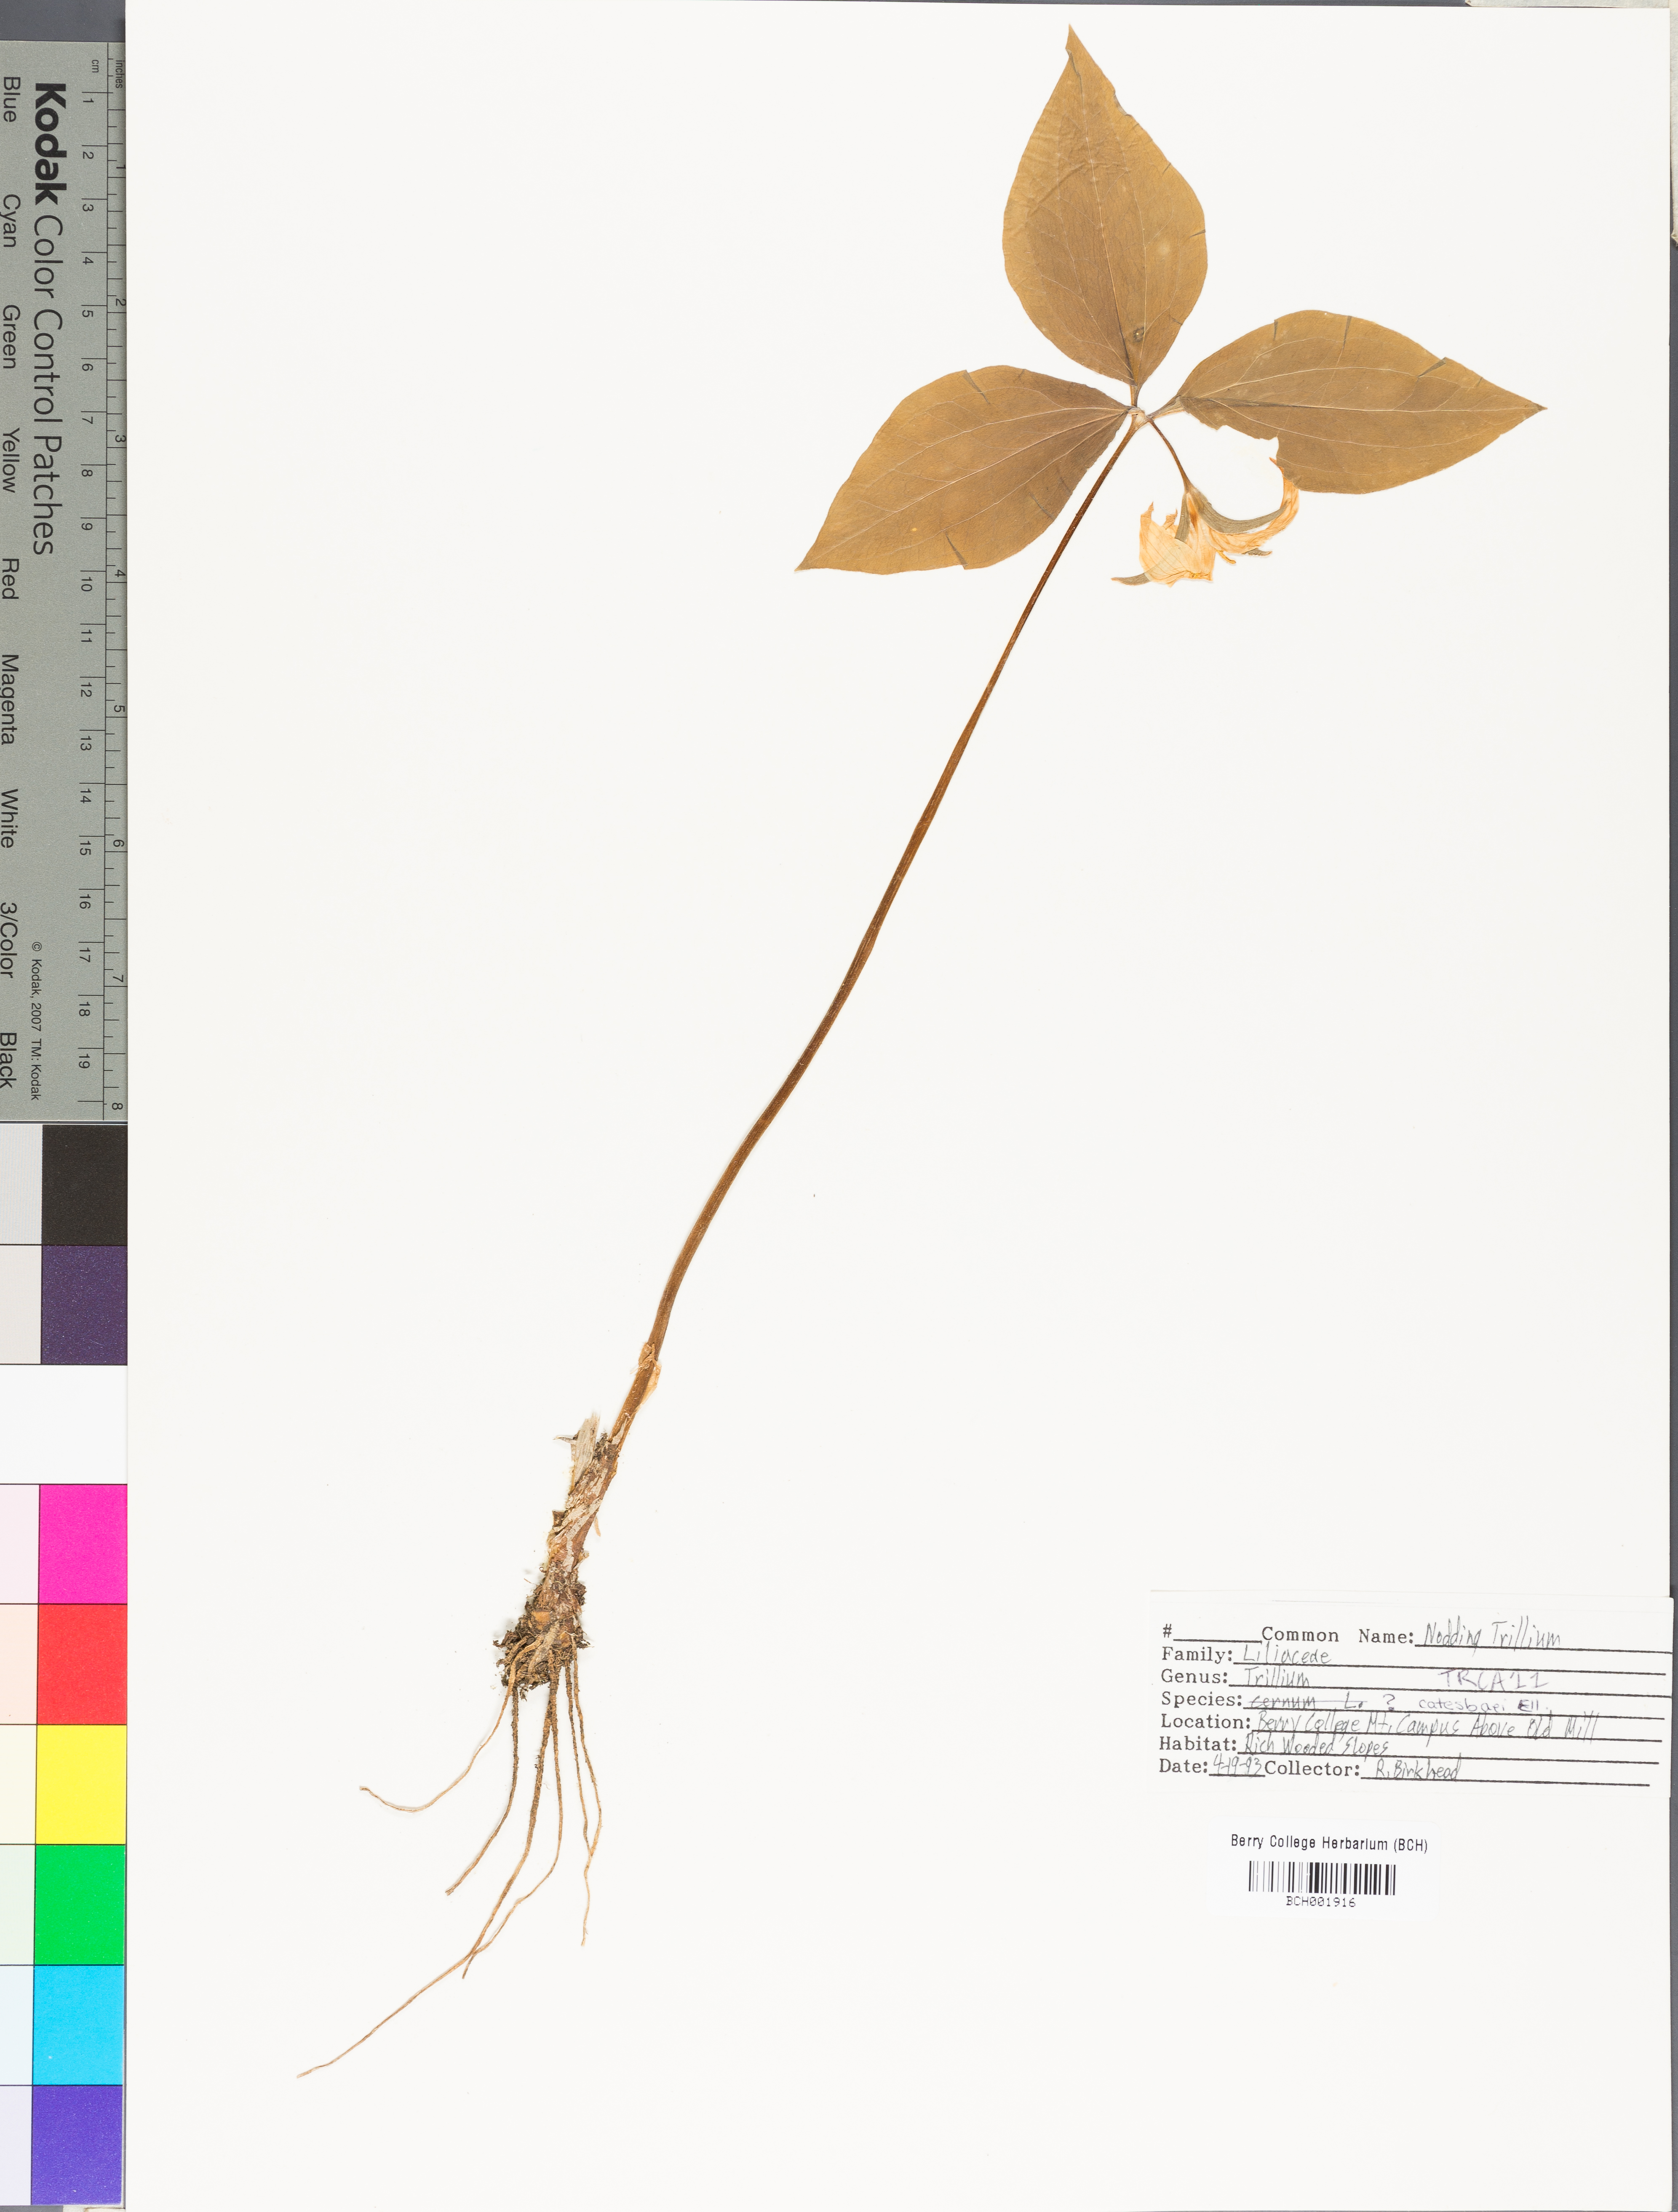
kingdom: Plantae
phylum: Tracheophyta
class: Liliopsida
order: Liliales
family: Melanthiaceae
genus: Trillium
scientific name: Trillium catesbaei
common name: Bashful trillium
